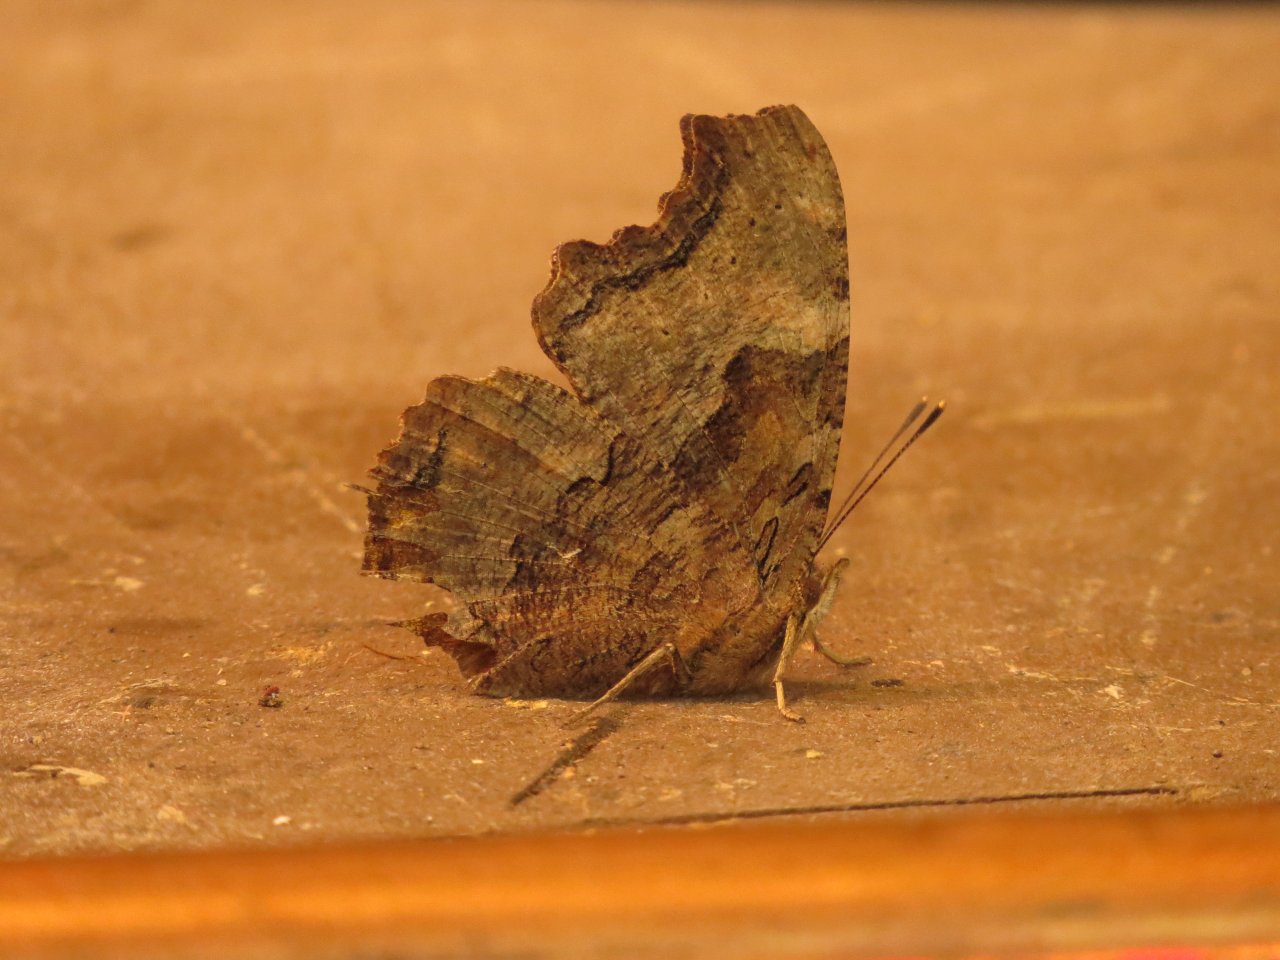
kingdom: Animalia
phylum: Arthropoda
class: Insecta
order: Lepidoptera
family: Nymphalidae
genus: Polygonia
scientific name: Polygonia vaualbum
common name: Compton Tortoiseshell
